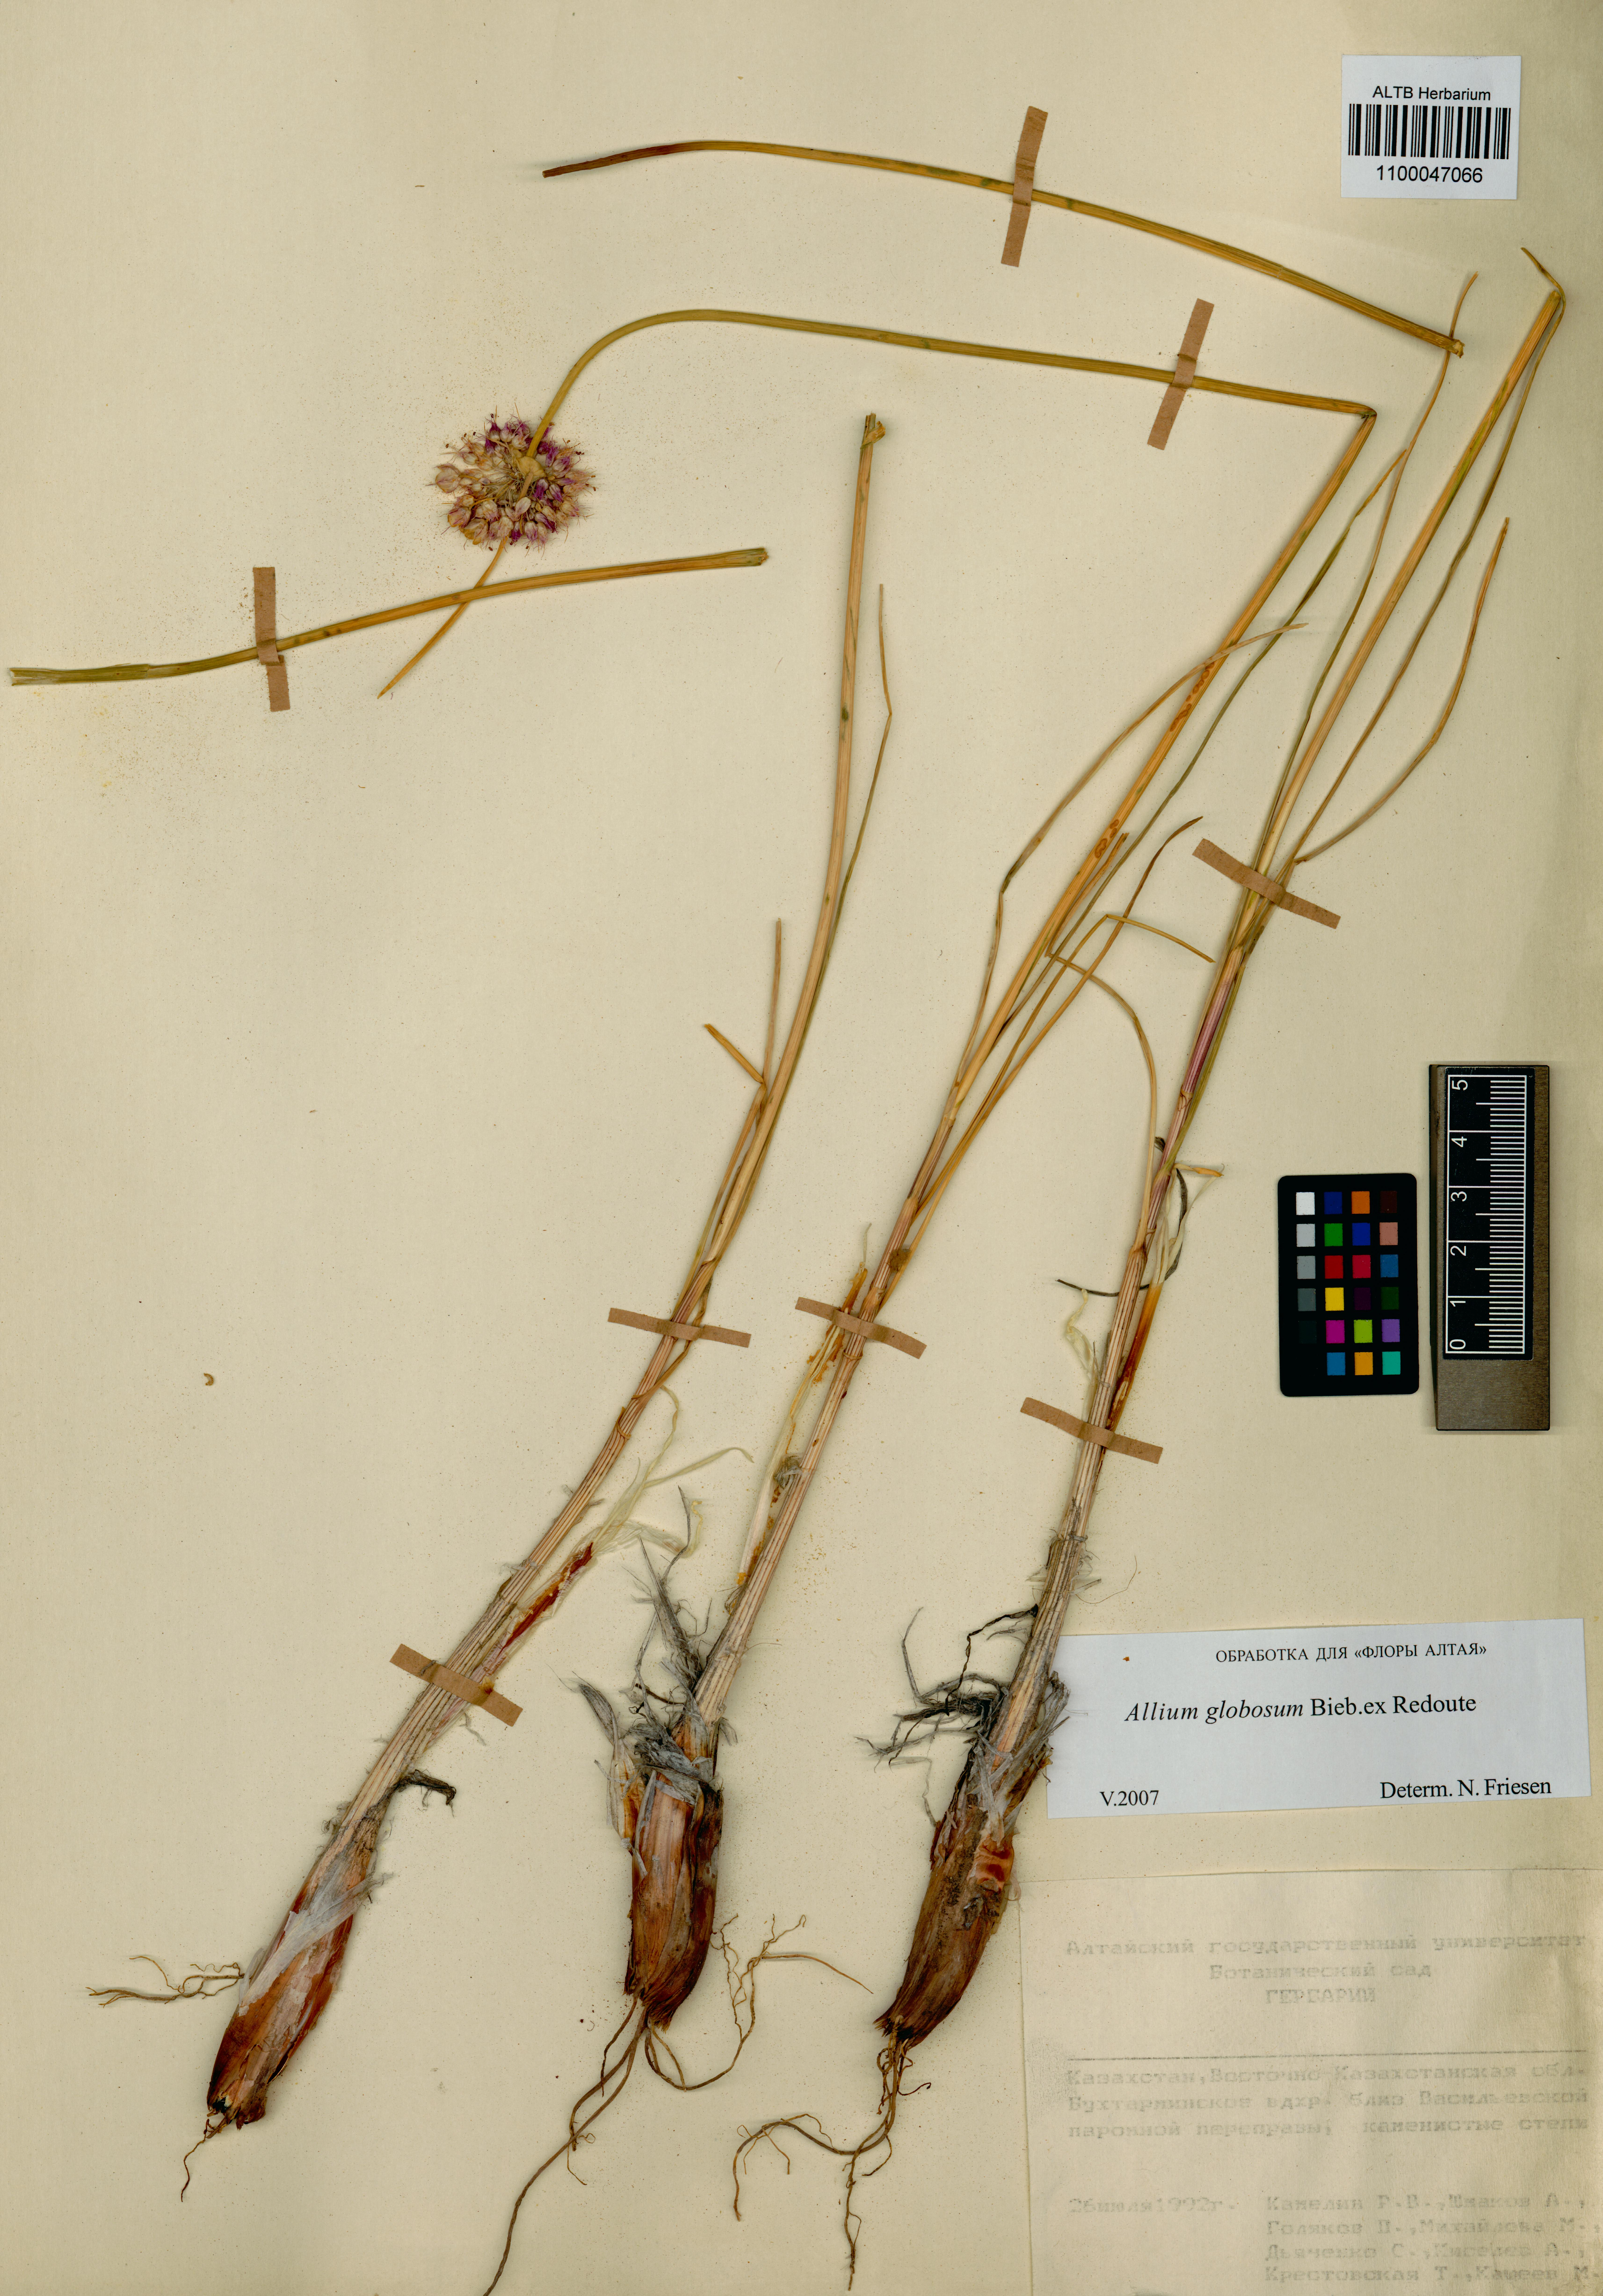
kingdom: Plantae
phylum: Tracheophyta
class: Liliopsida
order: Asparagales
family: Amaryllidaceae
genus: Allium
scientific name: Allium saxatile
